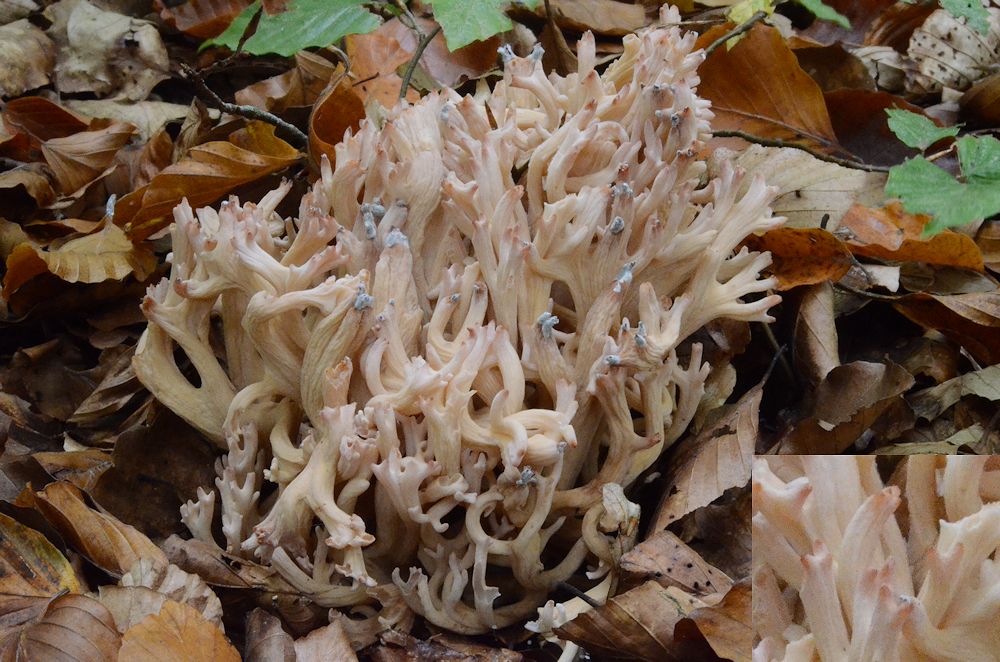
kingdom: Fungi
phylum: Basidiomycota
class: Agaricomycetes
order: Gomphales
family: Gomphaceae
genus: Ramaria
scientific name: Ramaria botrytis
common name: drue-koralsvamp
